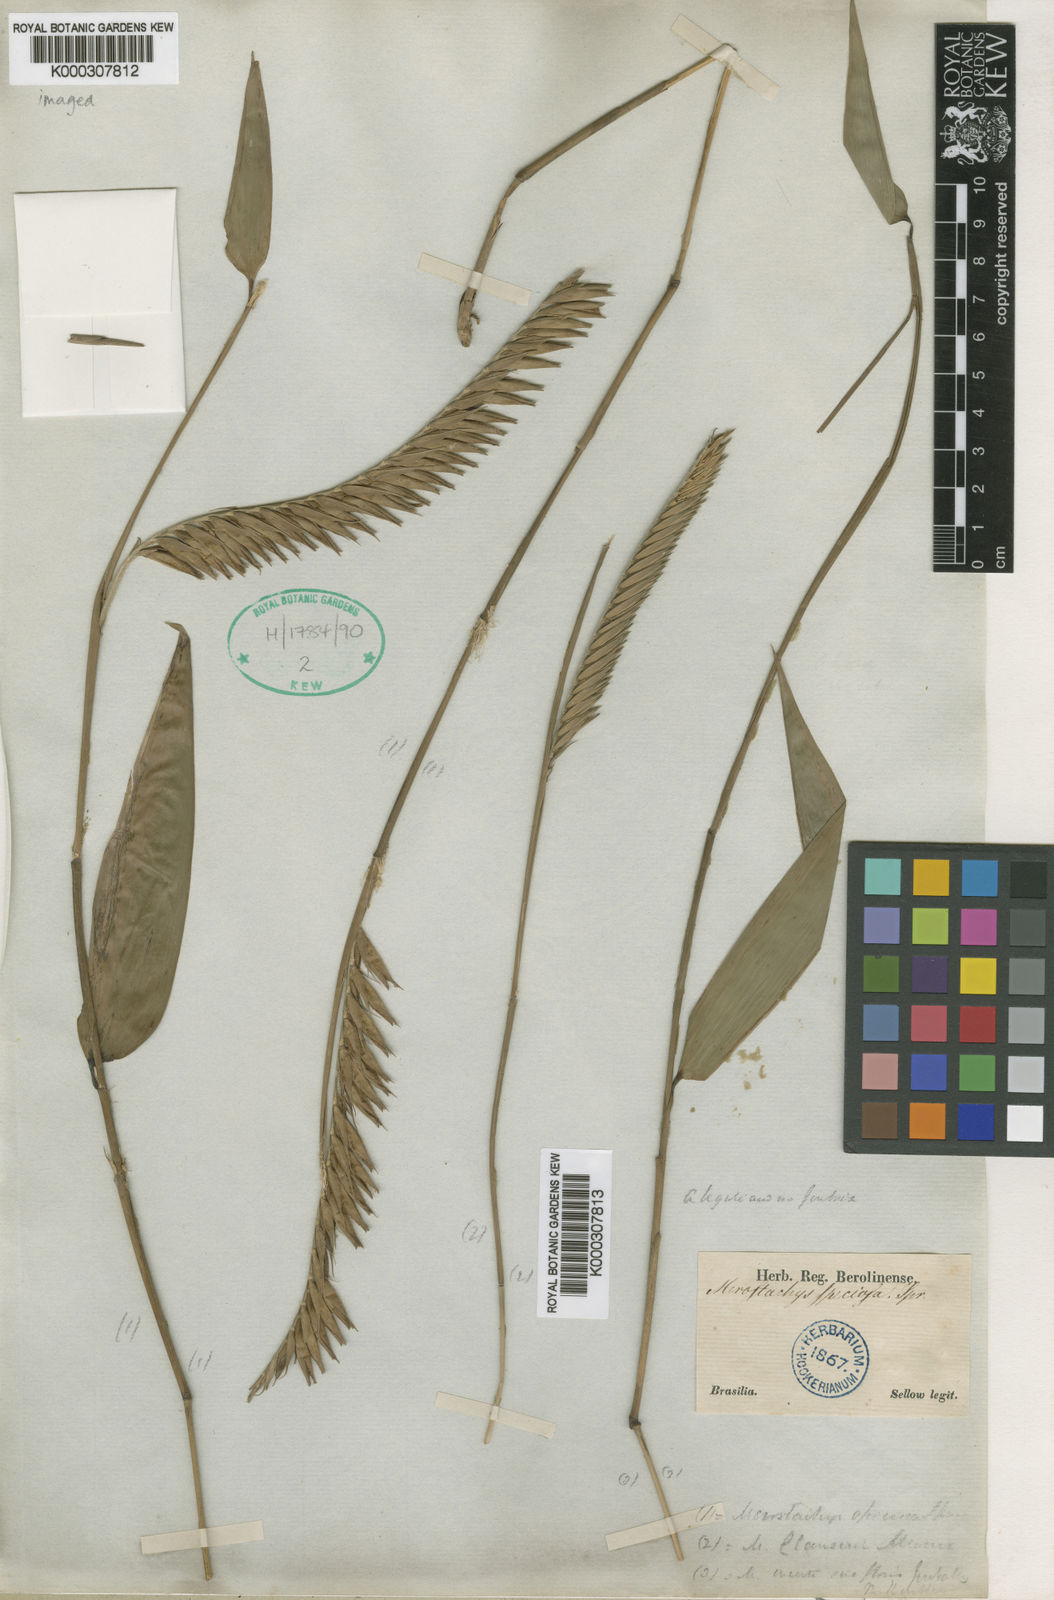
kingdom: Plantae
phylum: Tracheophyta
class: Liliopsida
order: Poales
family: Poaceae
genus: Merostachys
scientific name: Merostachys speciosa
